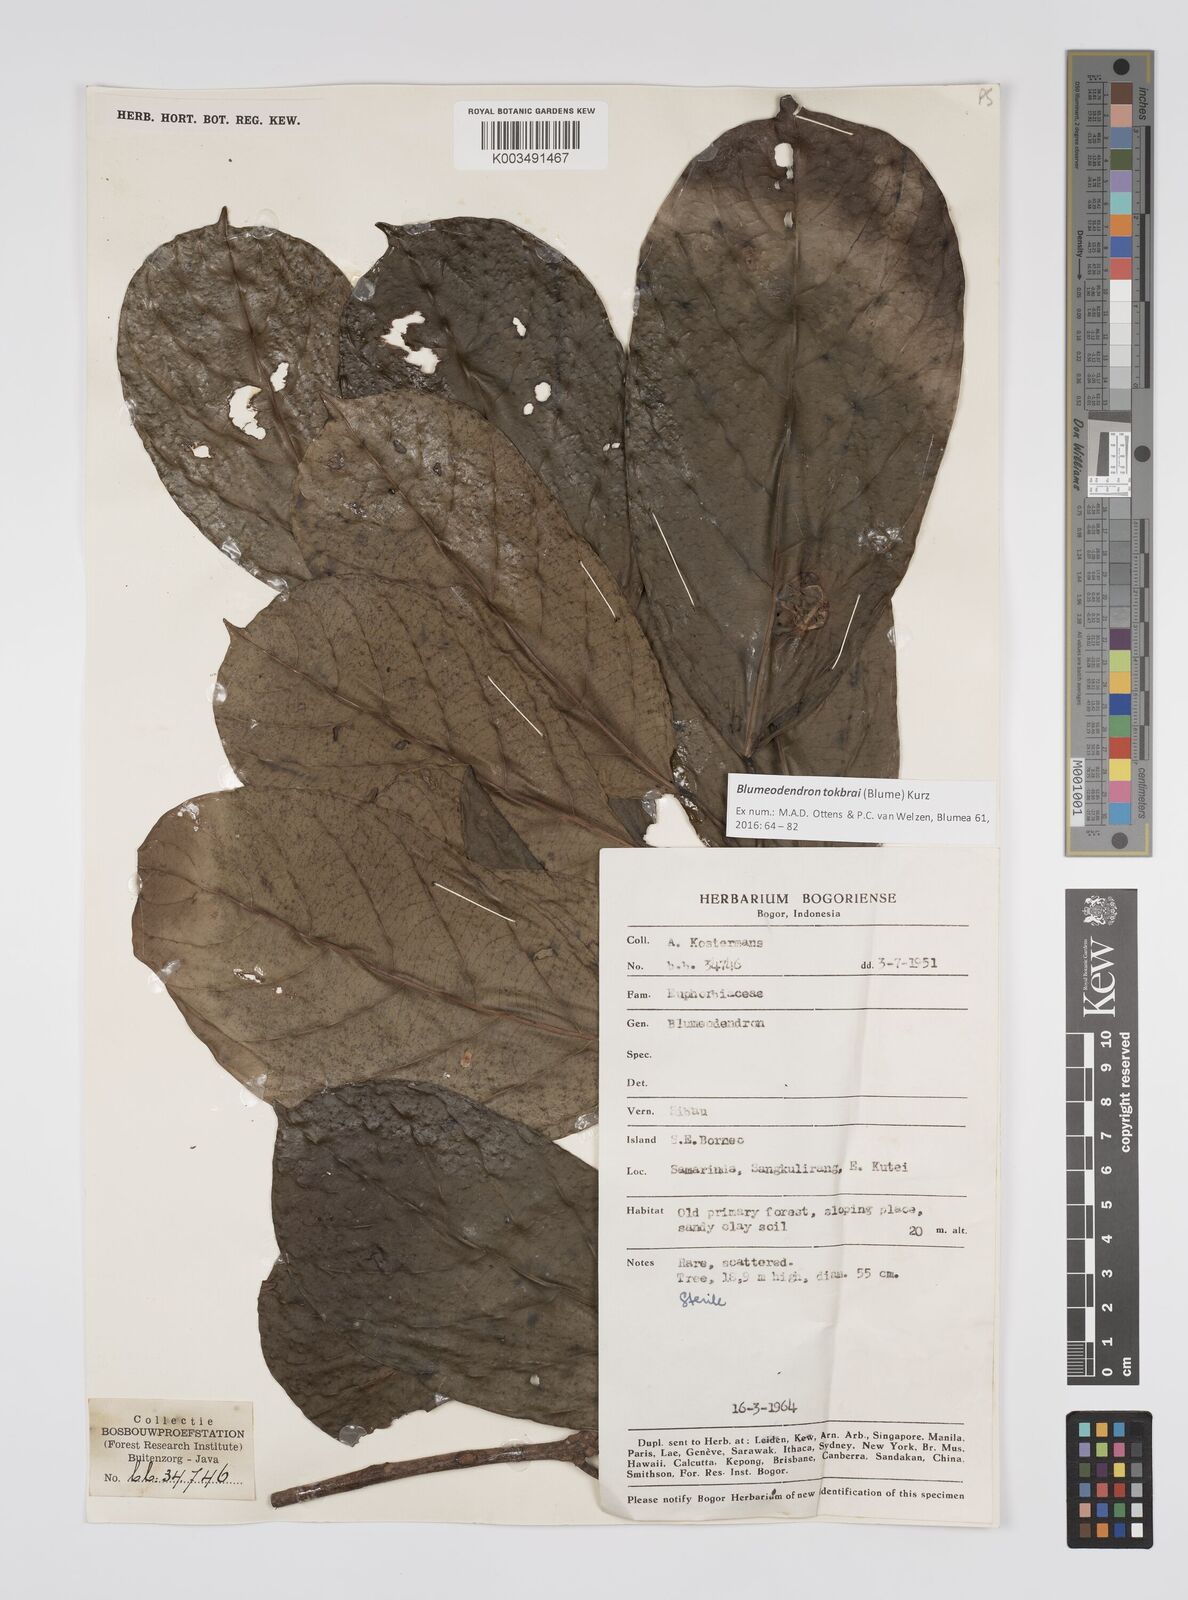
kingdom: Plantae
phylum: Tracheophyta
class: Magnoliopsida
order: Malpighiales
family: Euphorbiaceae
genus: Blumeodendron
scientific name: Blumeodendron tokbrai
